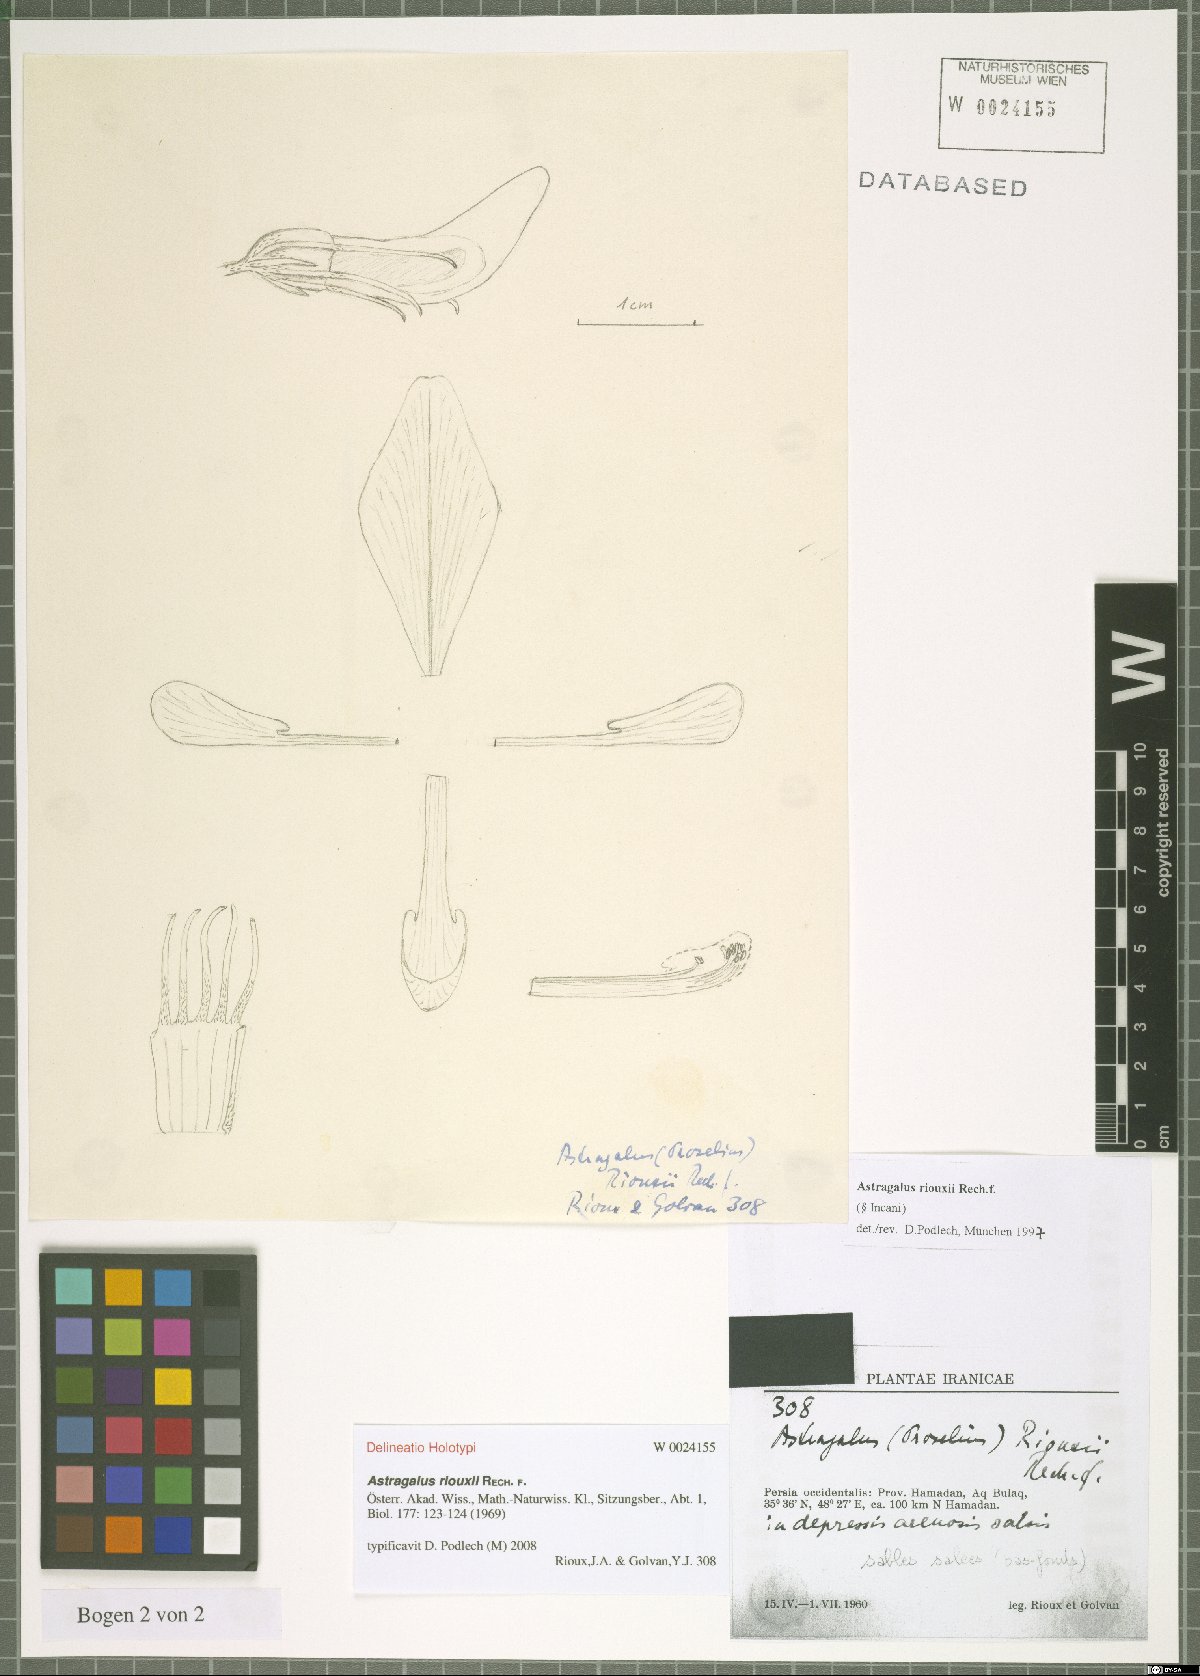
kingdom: Plantae
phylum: Tracheophyta
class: Magnoliopsida
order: Fabales
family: Fabaceae
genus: Astragalus
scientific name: Astragalus riouxii
